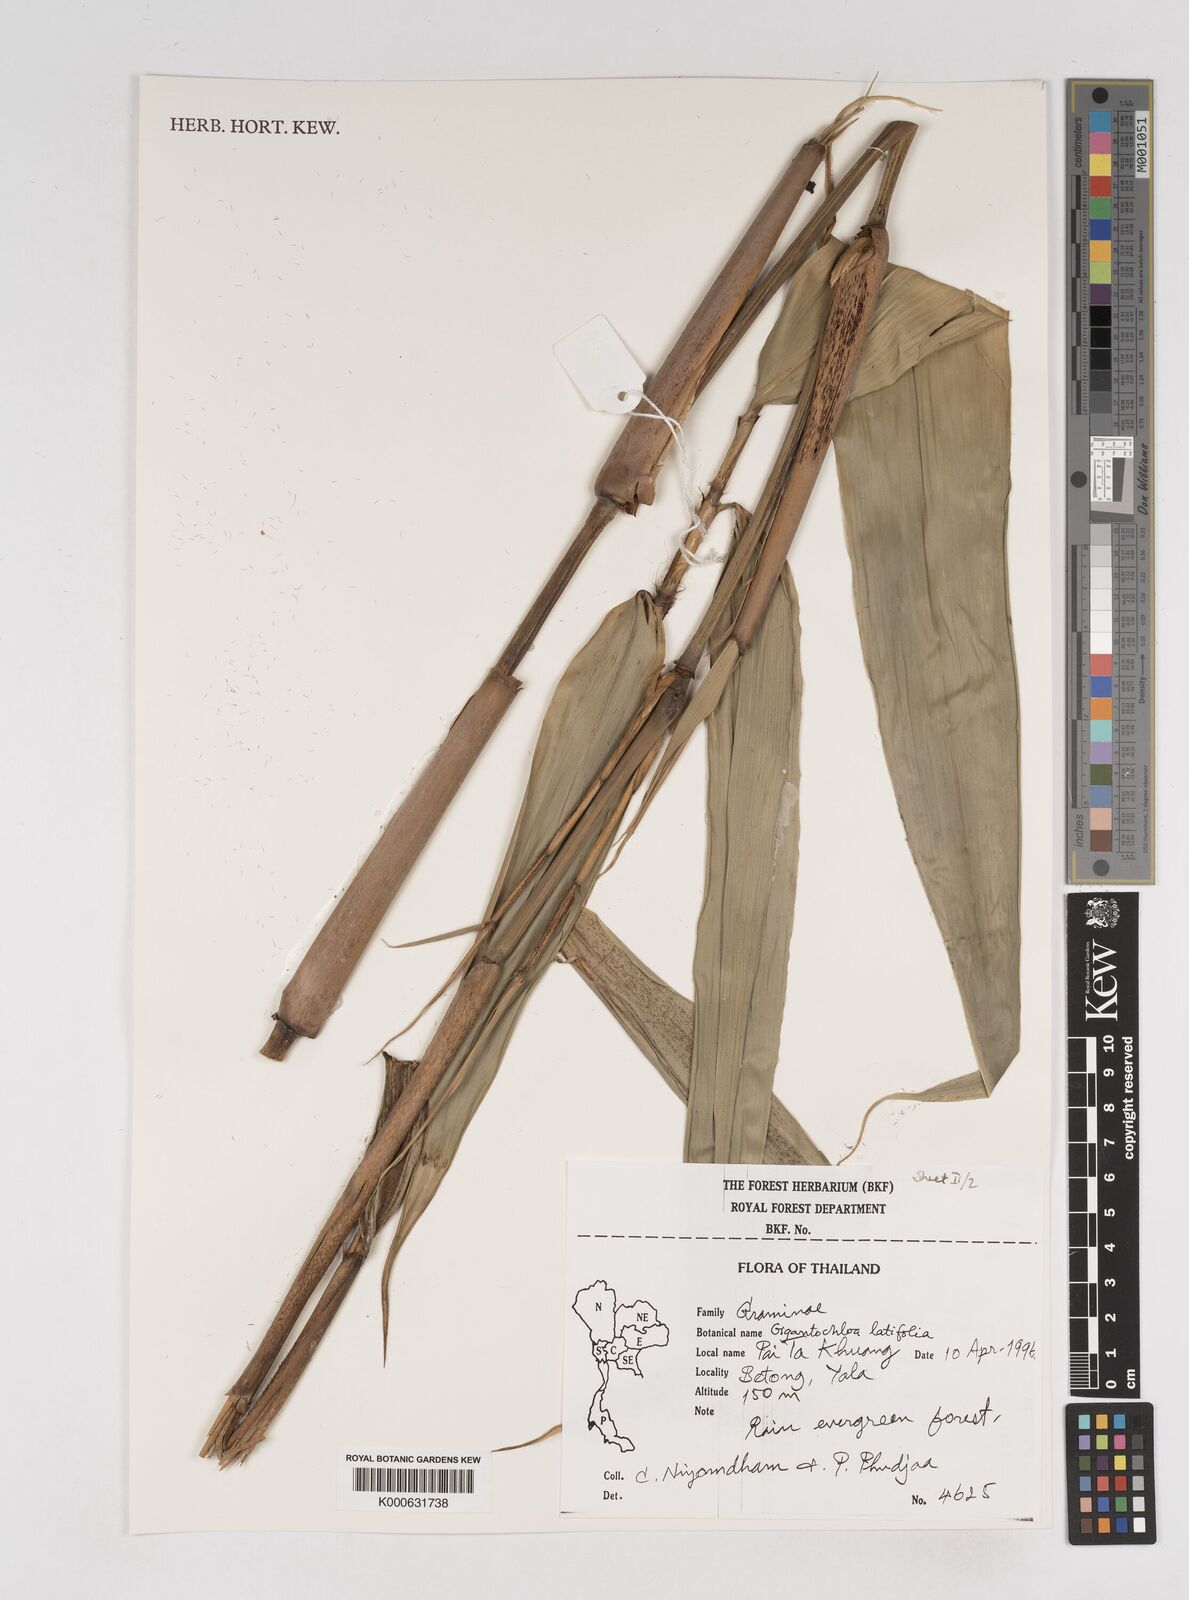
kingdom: Plantae
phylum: Tracheophyta
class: Liliopsida
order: Poales
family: Poaceae
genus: Gigantochloa
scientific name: Gigantochloa latifolia
